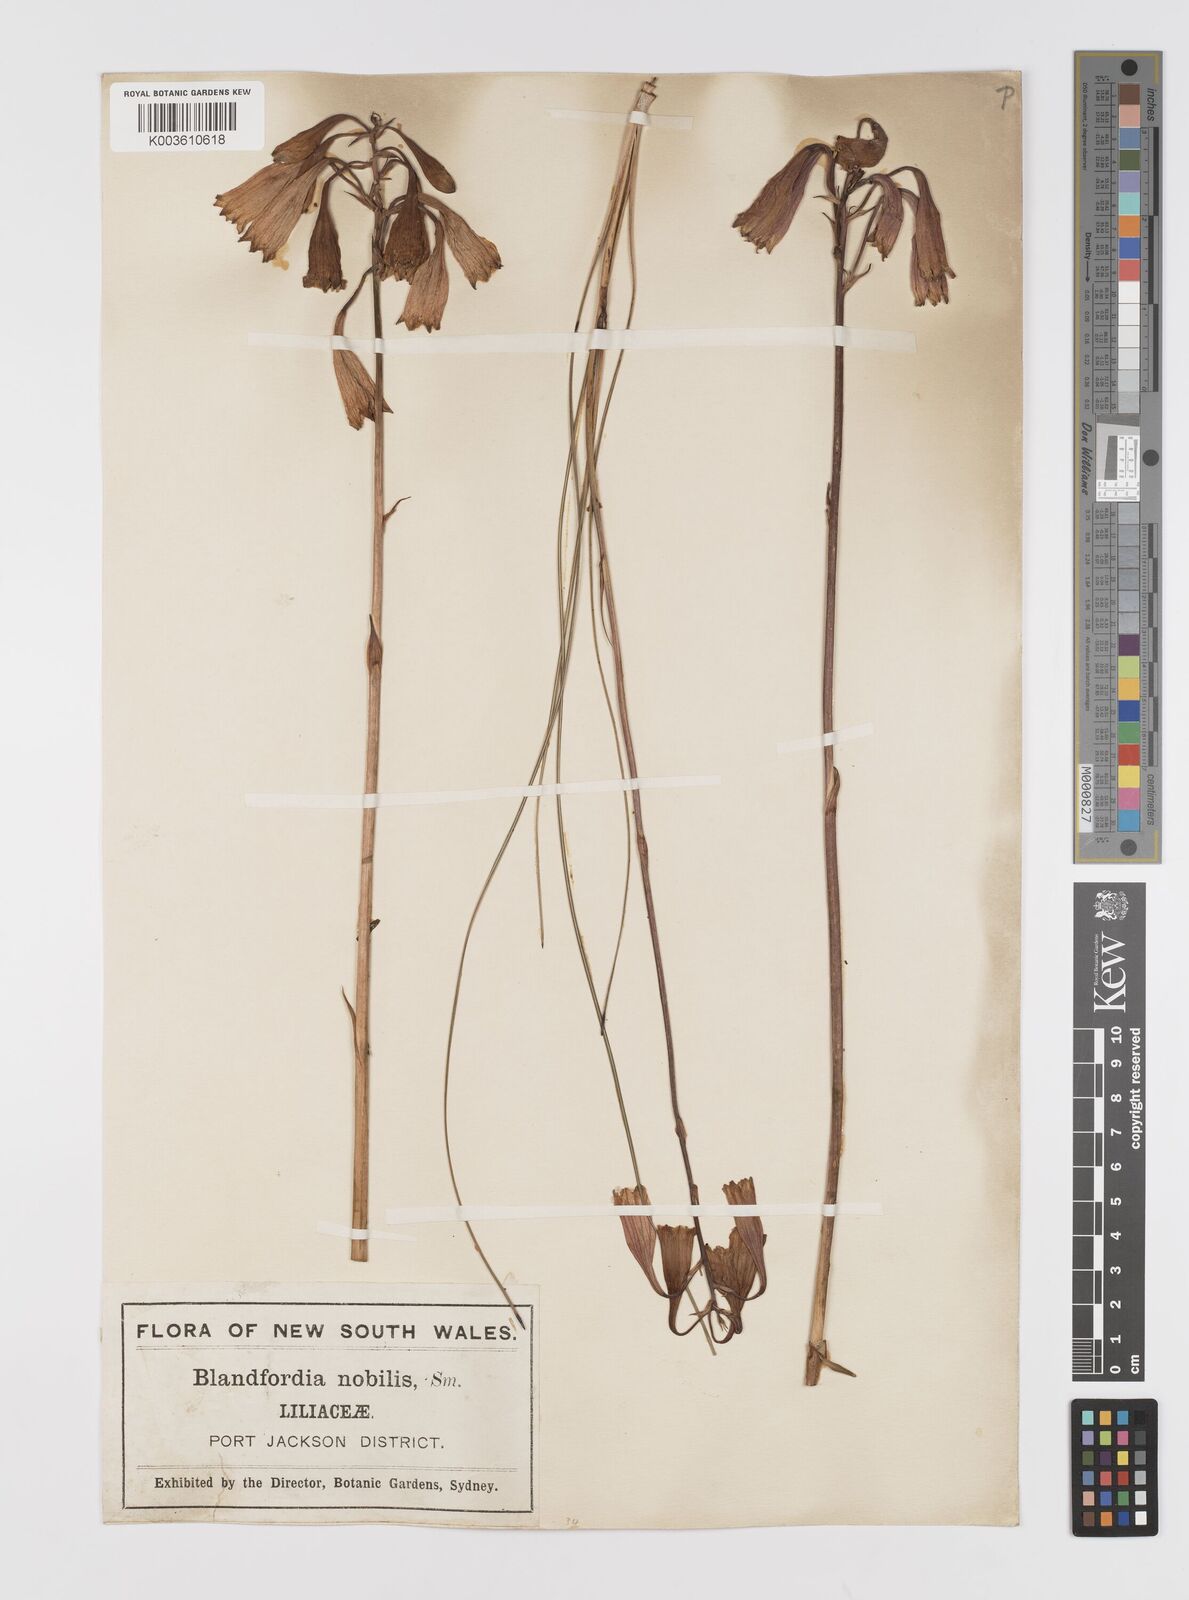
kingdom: Plantae
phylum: Tracheophyta
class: Liliopsida
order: Asparagales
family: Blandfordiaceae
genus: Blandfordia
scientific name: Blandfordia nobilis
